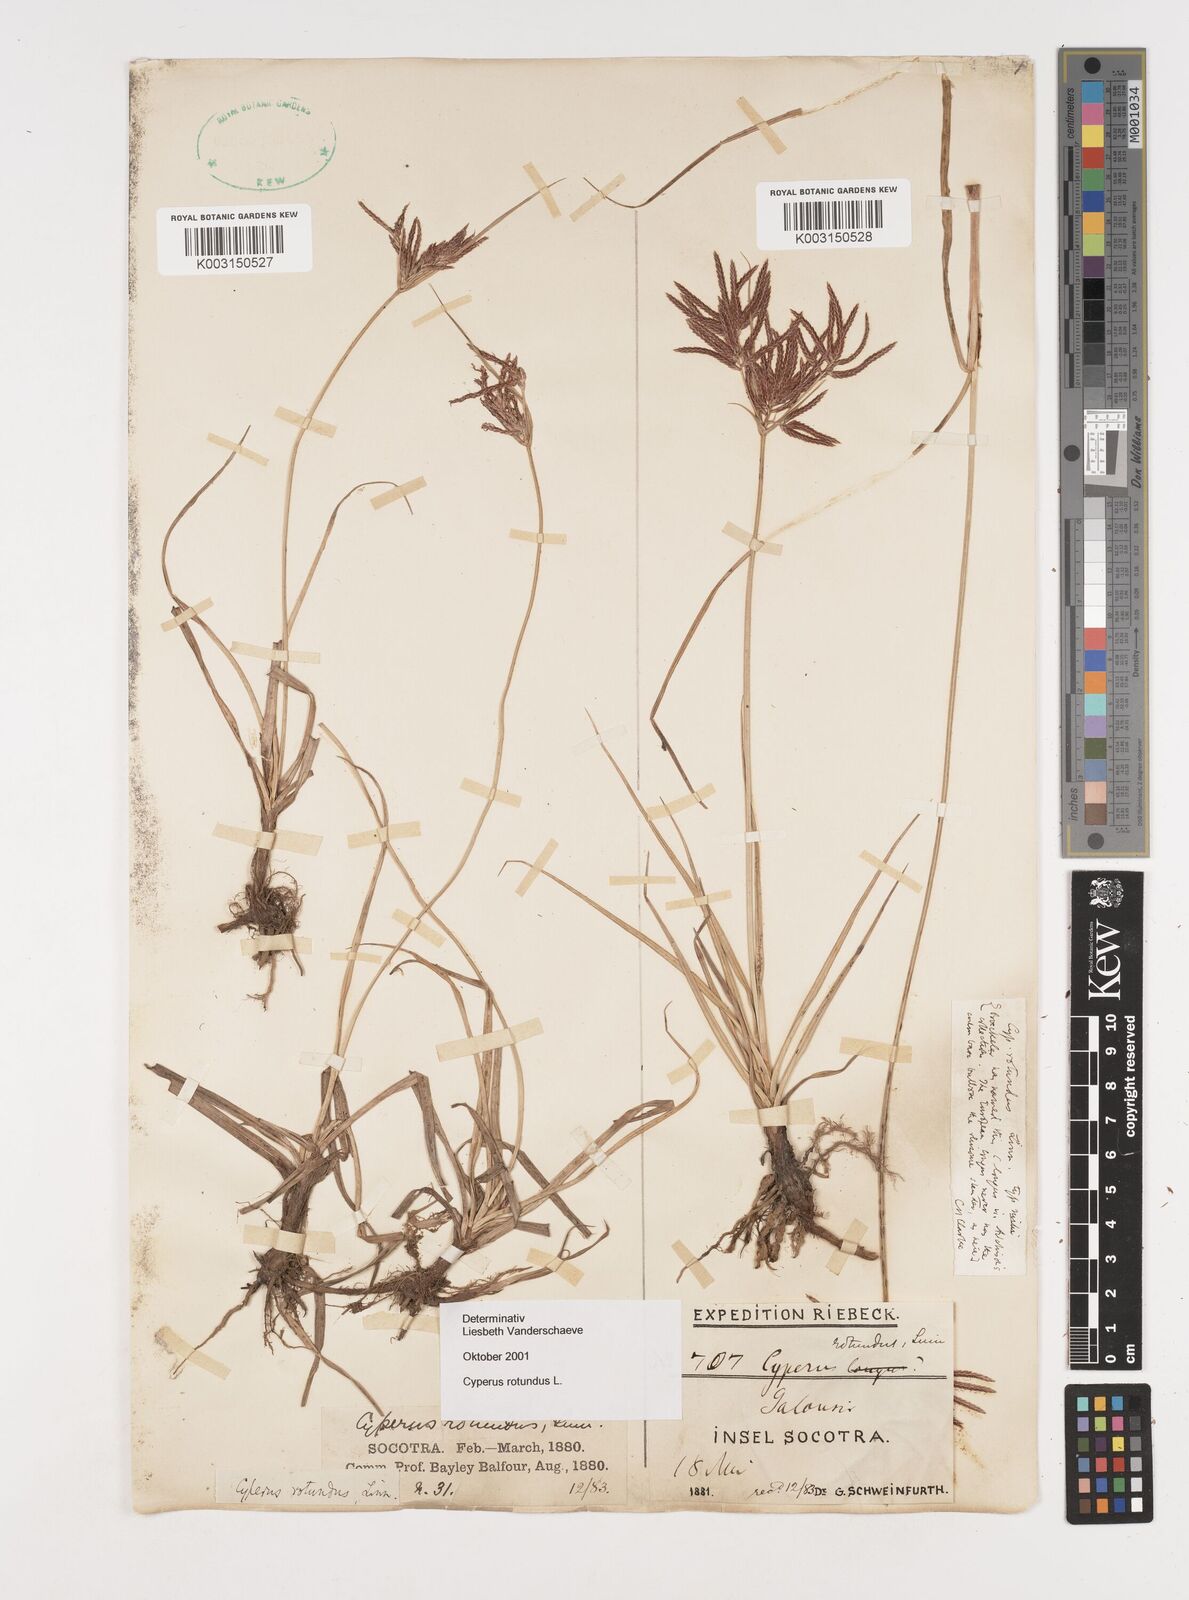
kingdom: Plantae
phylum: Tracheophyta
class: Liliopsida
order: Poales
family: Cyperaceae
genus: Cyperus
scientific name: Cyperus rotundus
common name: Nutgrass
